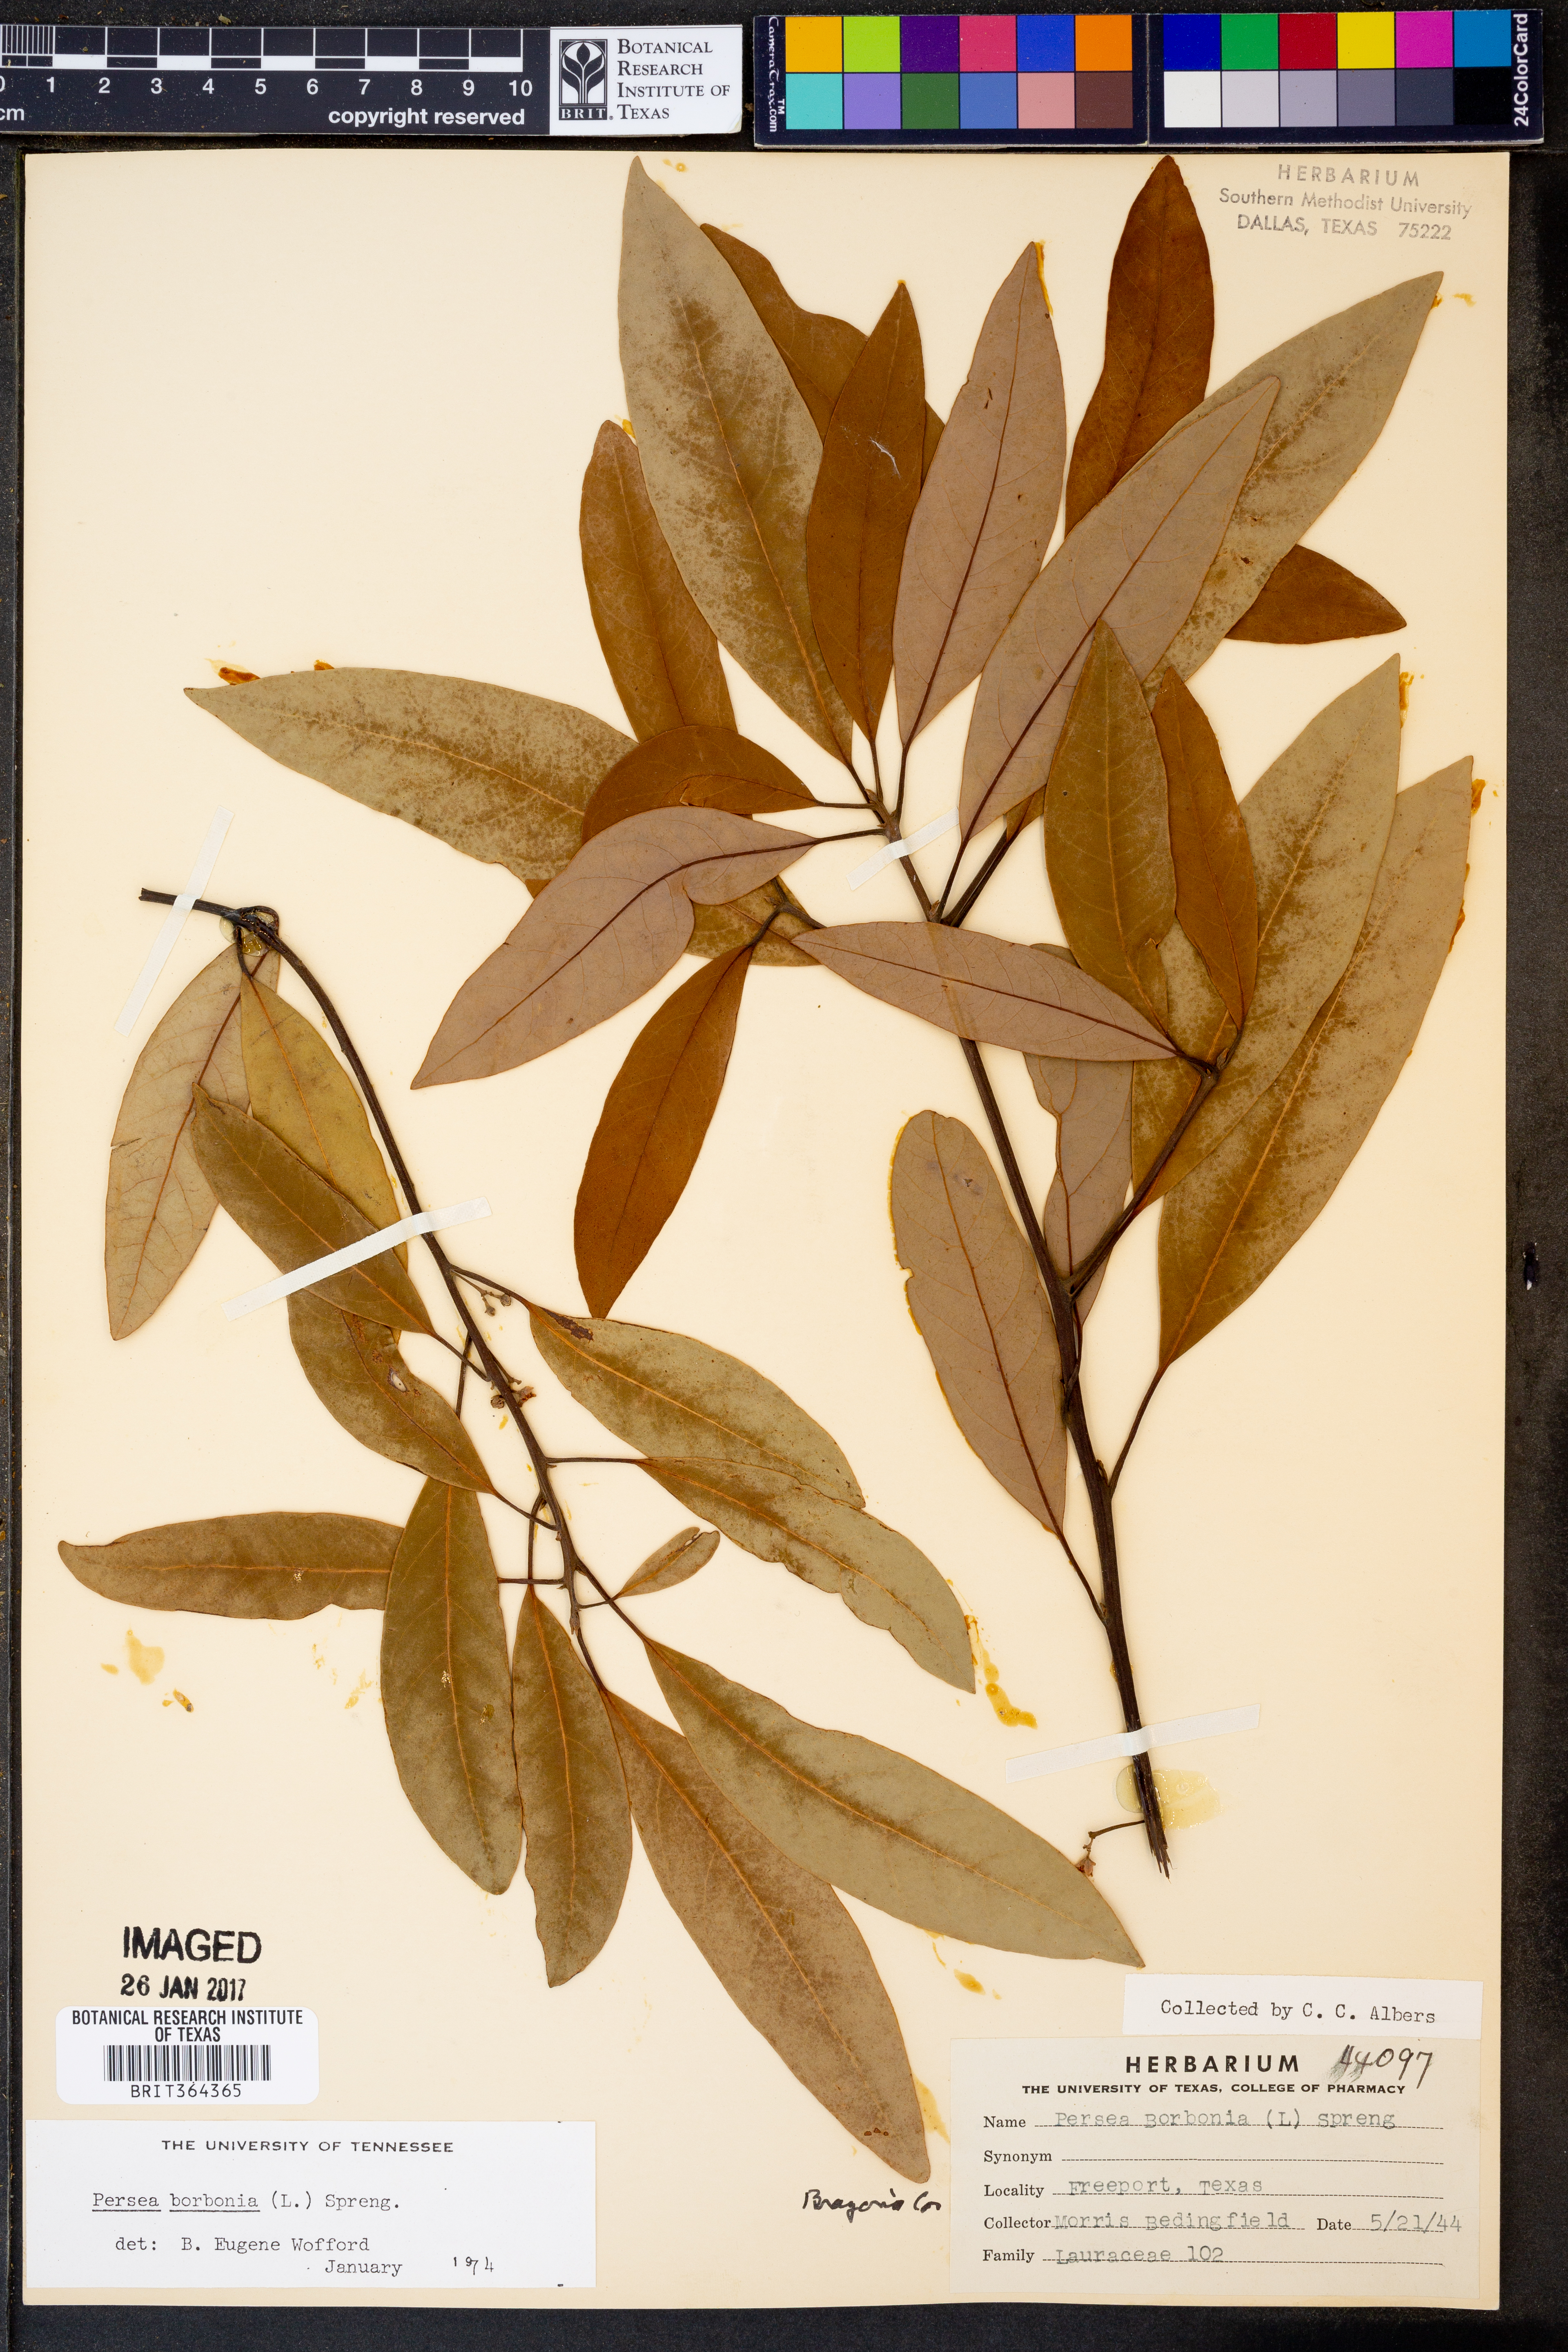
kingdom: Plantae
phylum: Tracheophyta
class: Magnoliopsida
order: Laurales
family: Lauraceae
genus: Persea
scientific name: Persea borbonia
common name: Redbay
